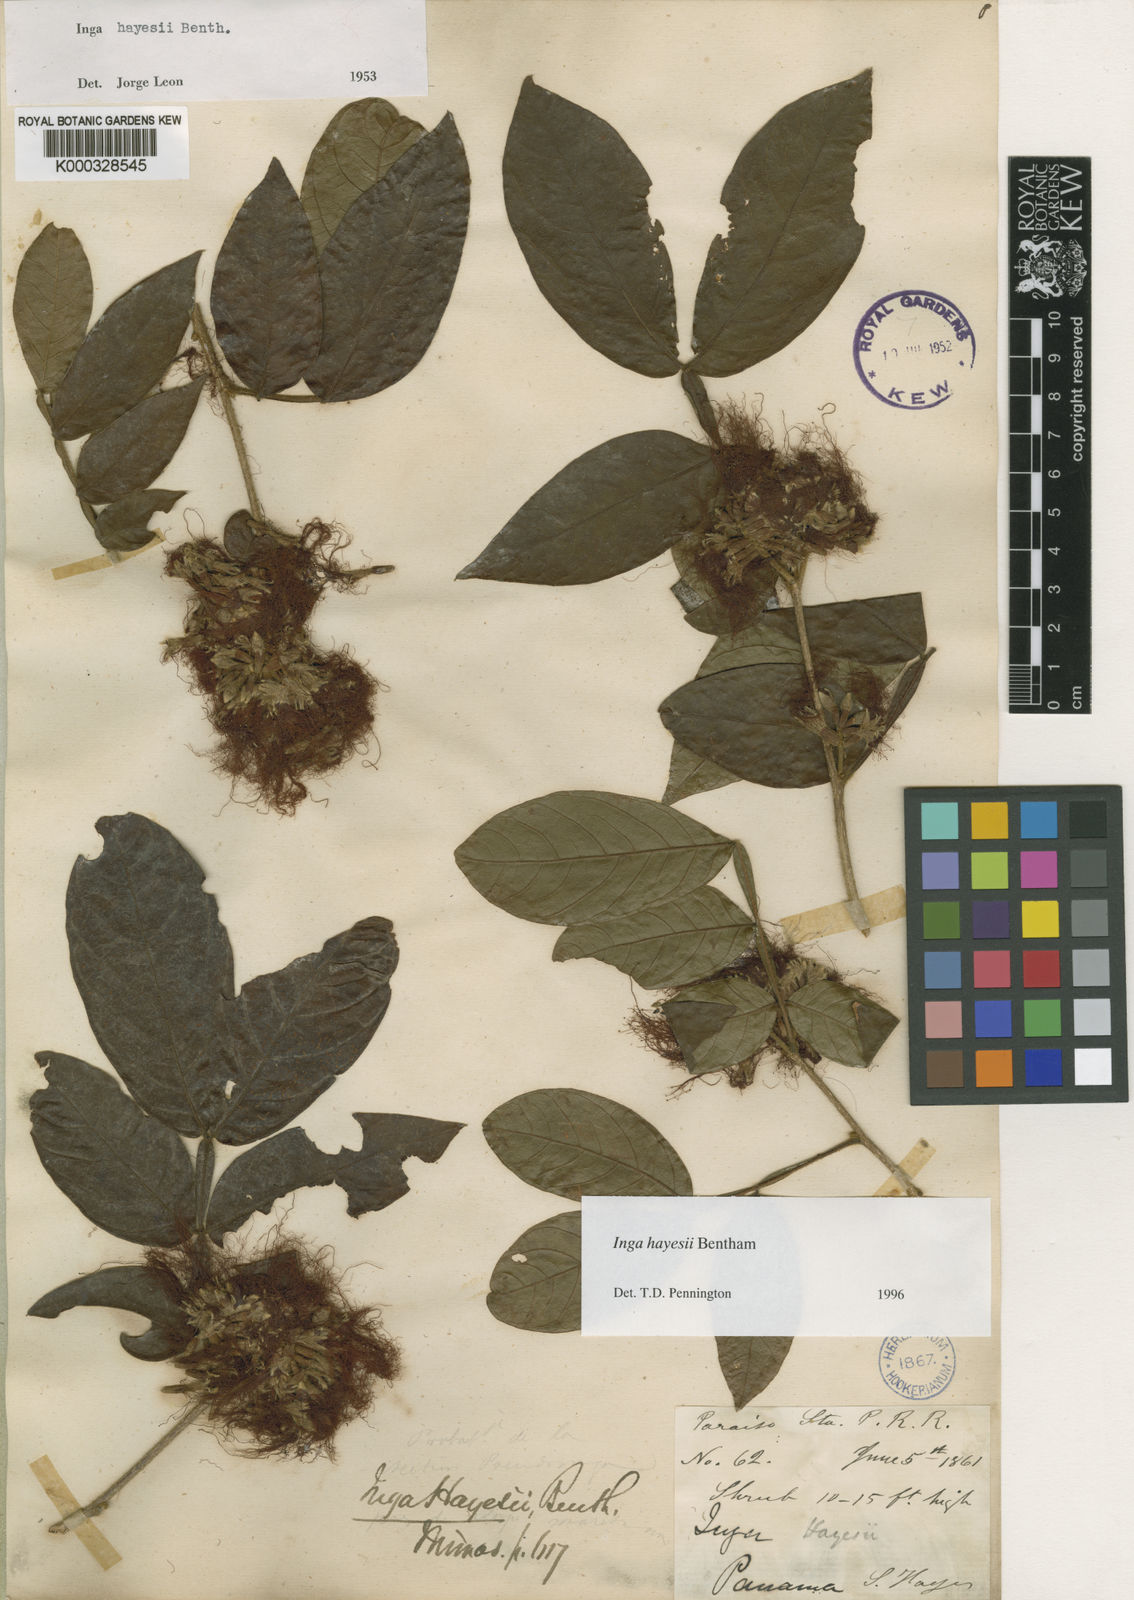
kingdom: Plantae
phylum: Tracheophyta
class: Magnoliopsida
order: Fabales
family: Fabaceae
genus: Inga
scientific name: Inga hayesii
